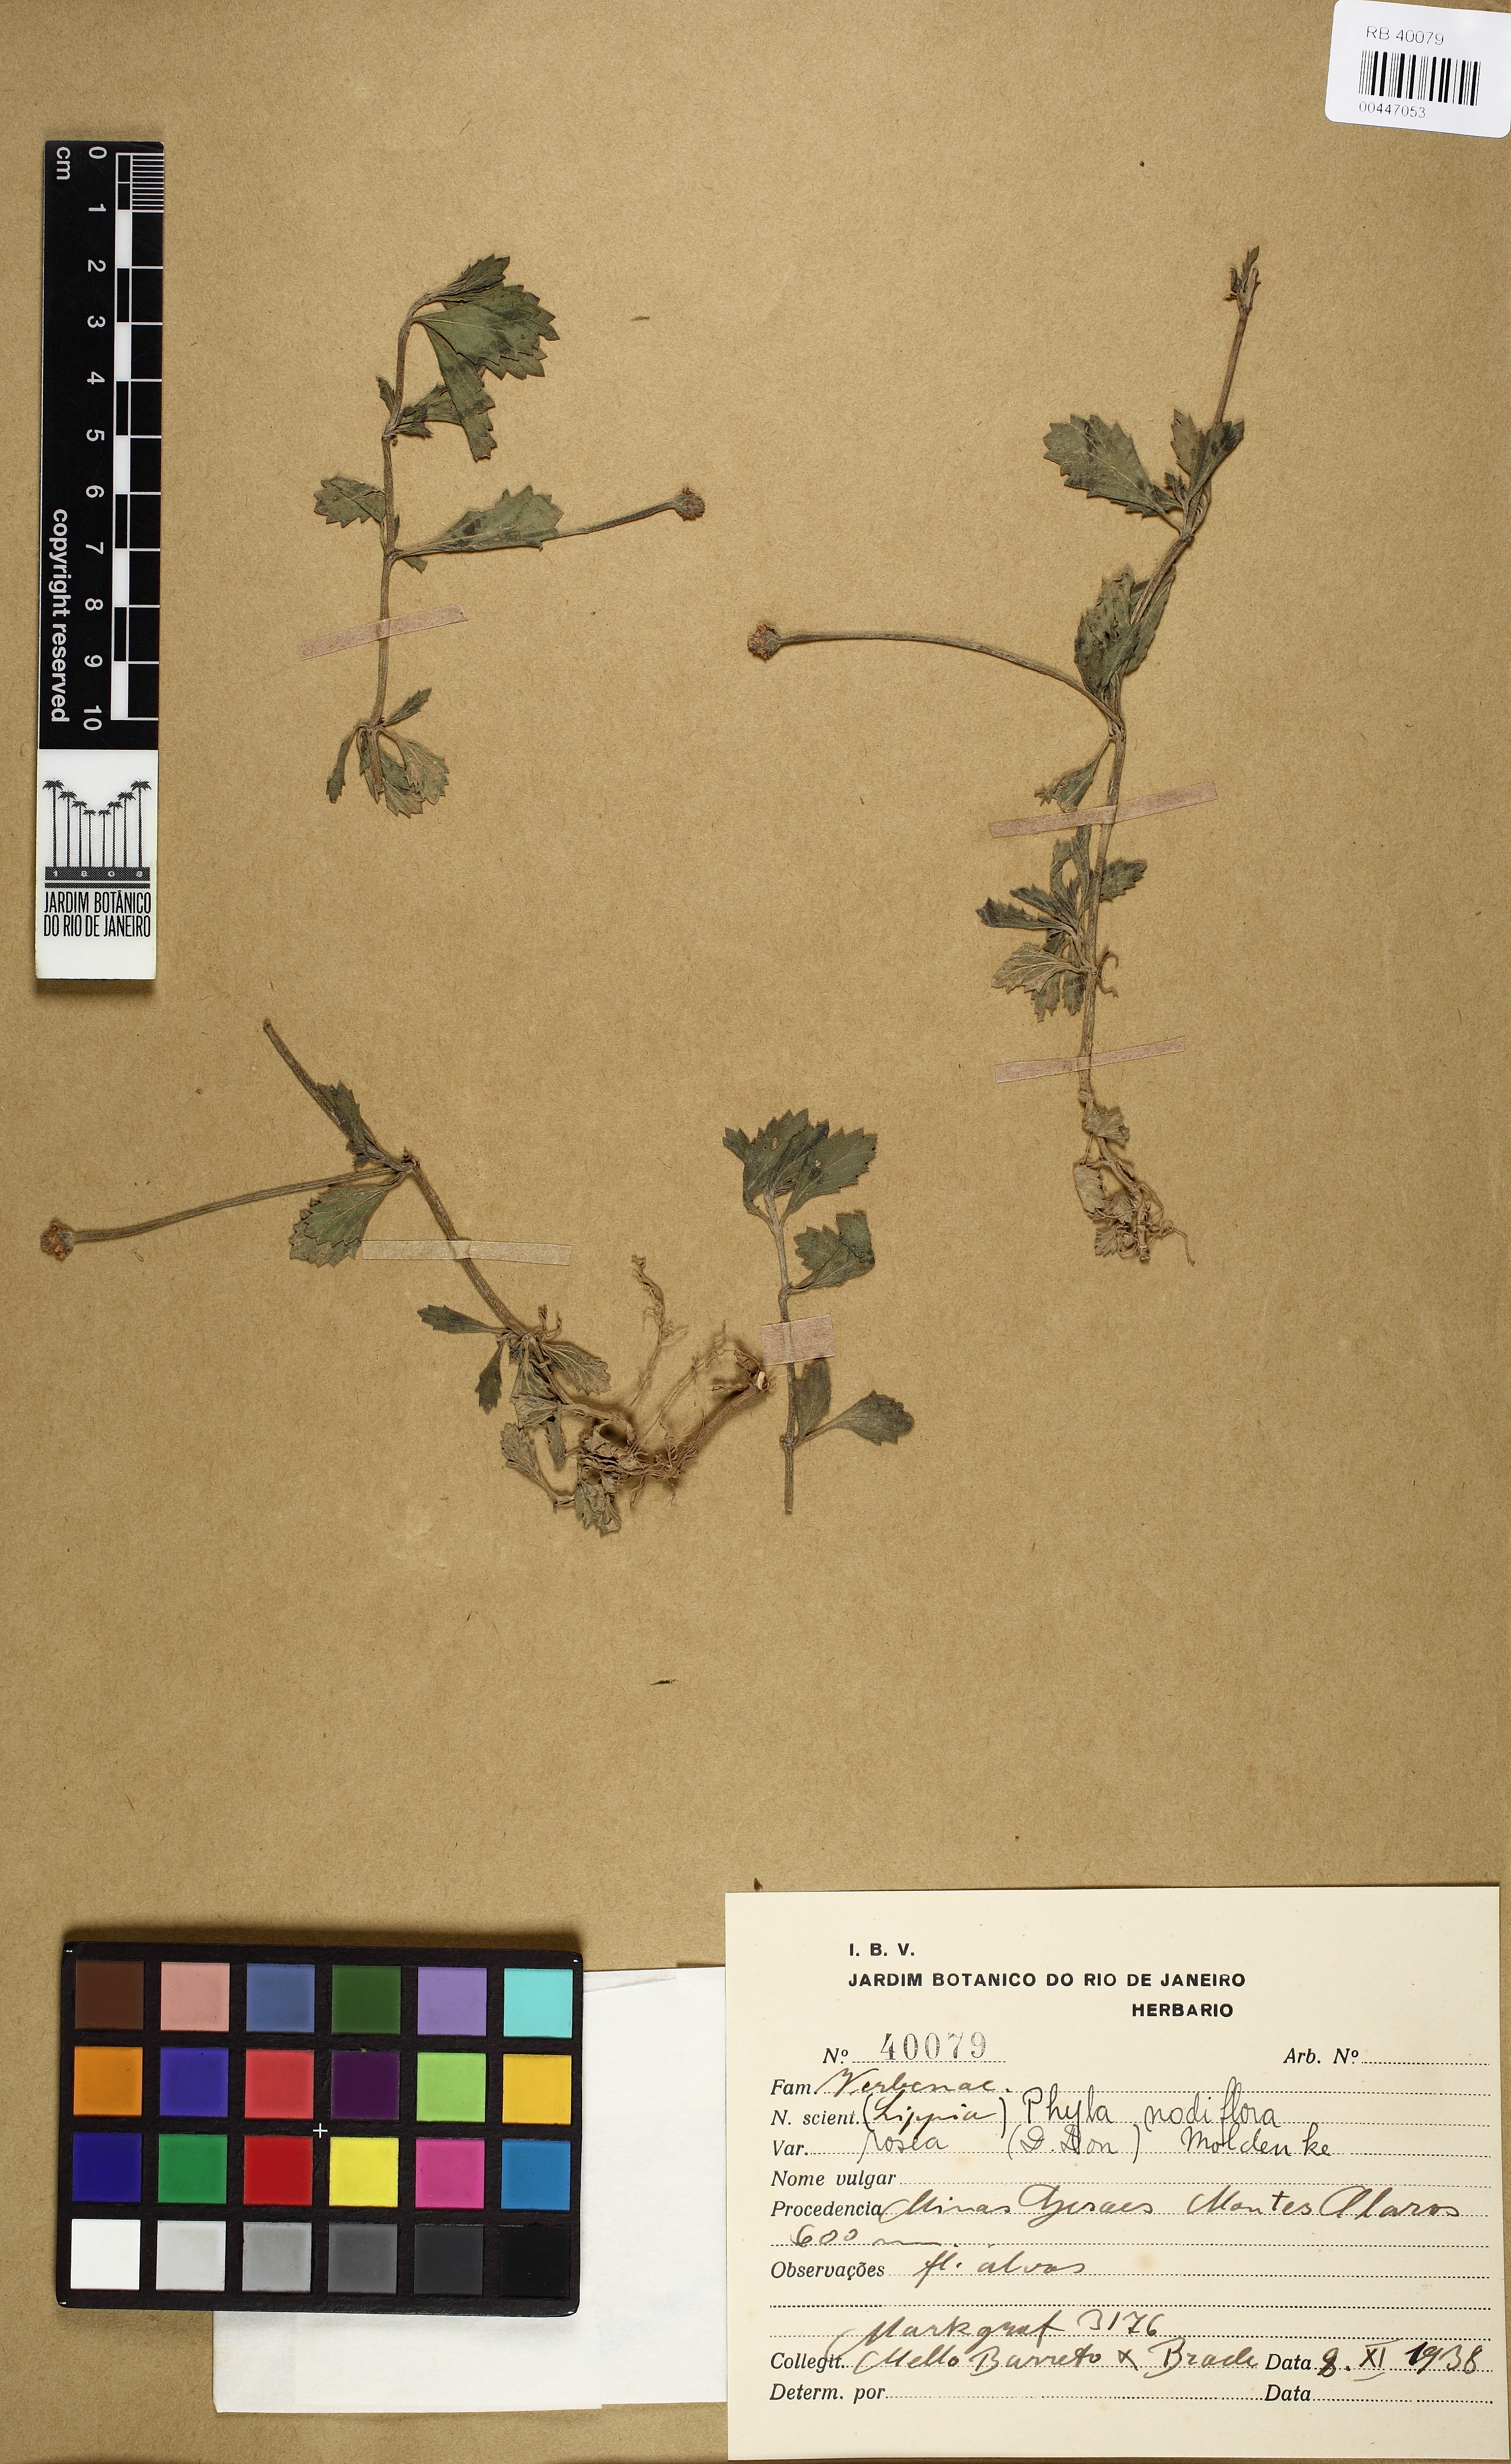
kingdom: Plantae
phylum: Tracheophyta
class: Magnoliopsida
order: Lamiales
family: Verbenaceae
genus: Phyla
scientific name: Phyla nodiflora
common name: Frogfruit
